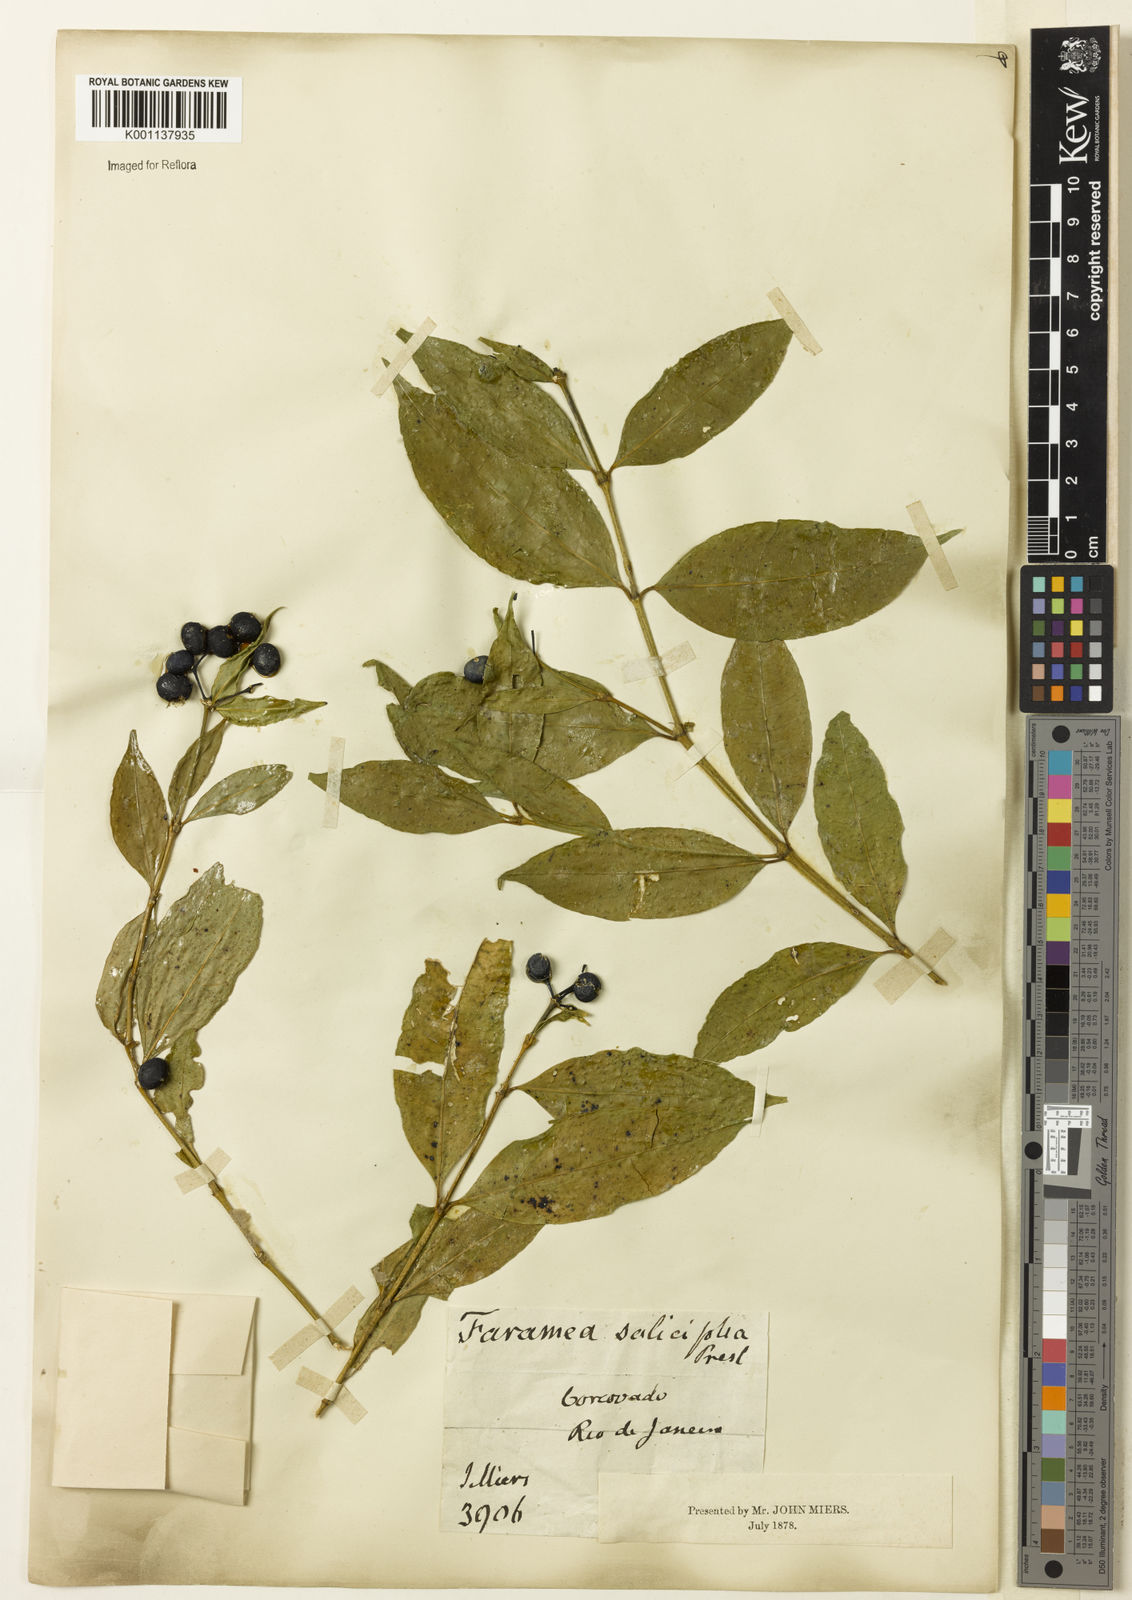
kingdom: Plantae
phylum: Tracheophyta
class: Magnoliopsida
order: Gentianales
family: Rubiaceae
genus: Faramea
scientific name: Faramea multiflora
